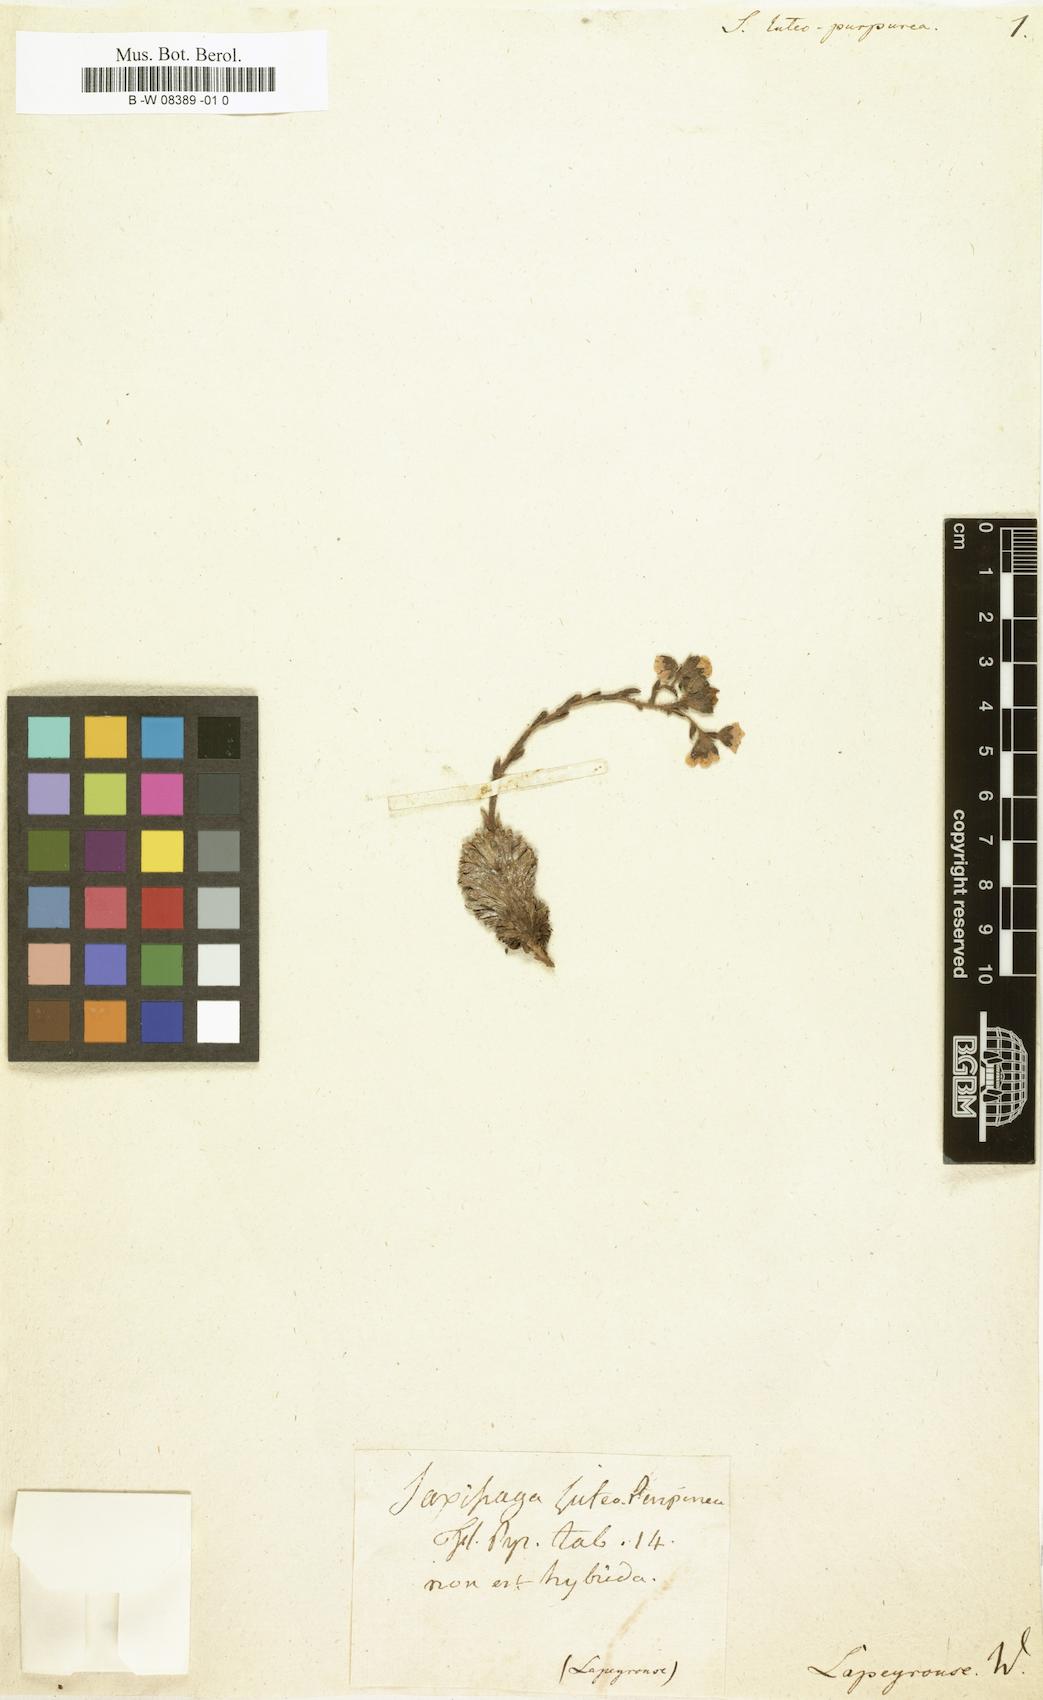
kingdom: Plantae
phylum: Tracheophyta
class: Magnoliopsida
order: Saxifragales
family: Saxifragaceae
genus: Saxifraga
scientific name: Saxifraga luteopurpurea
